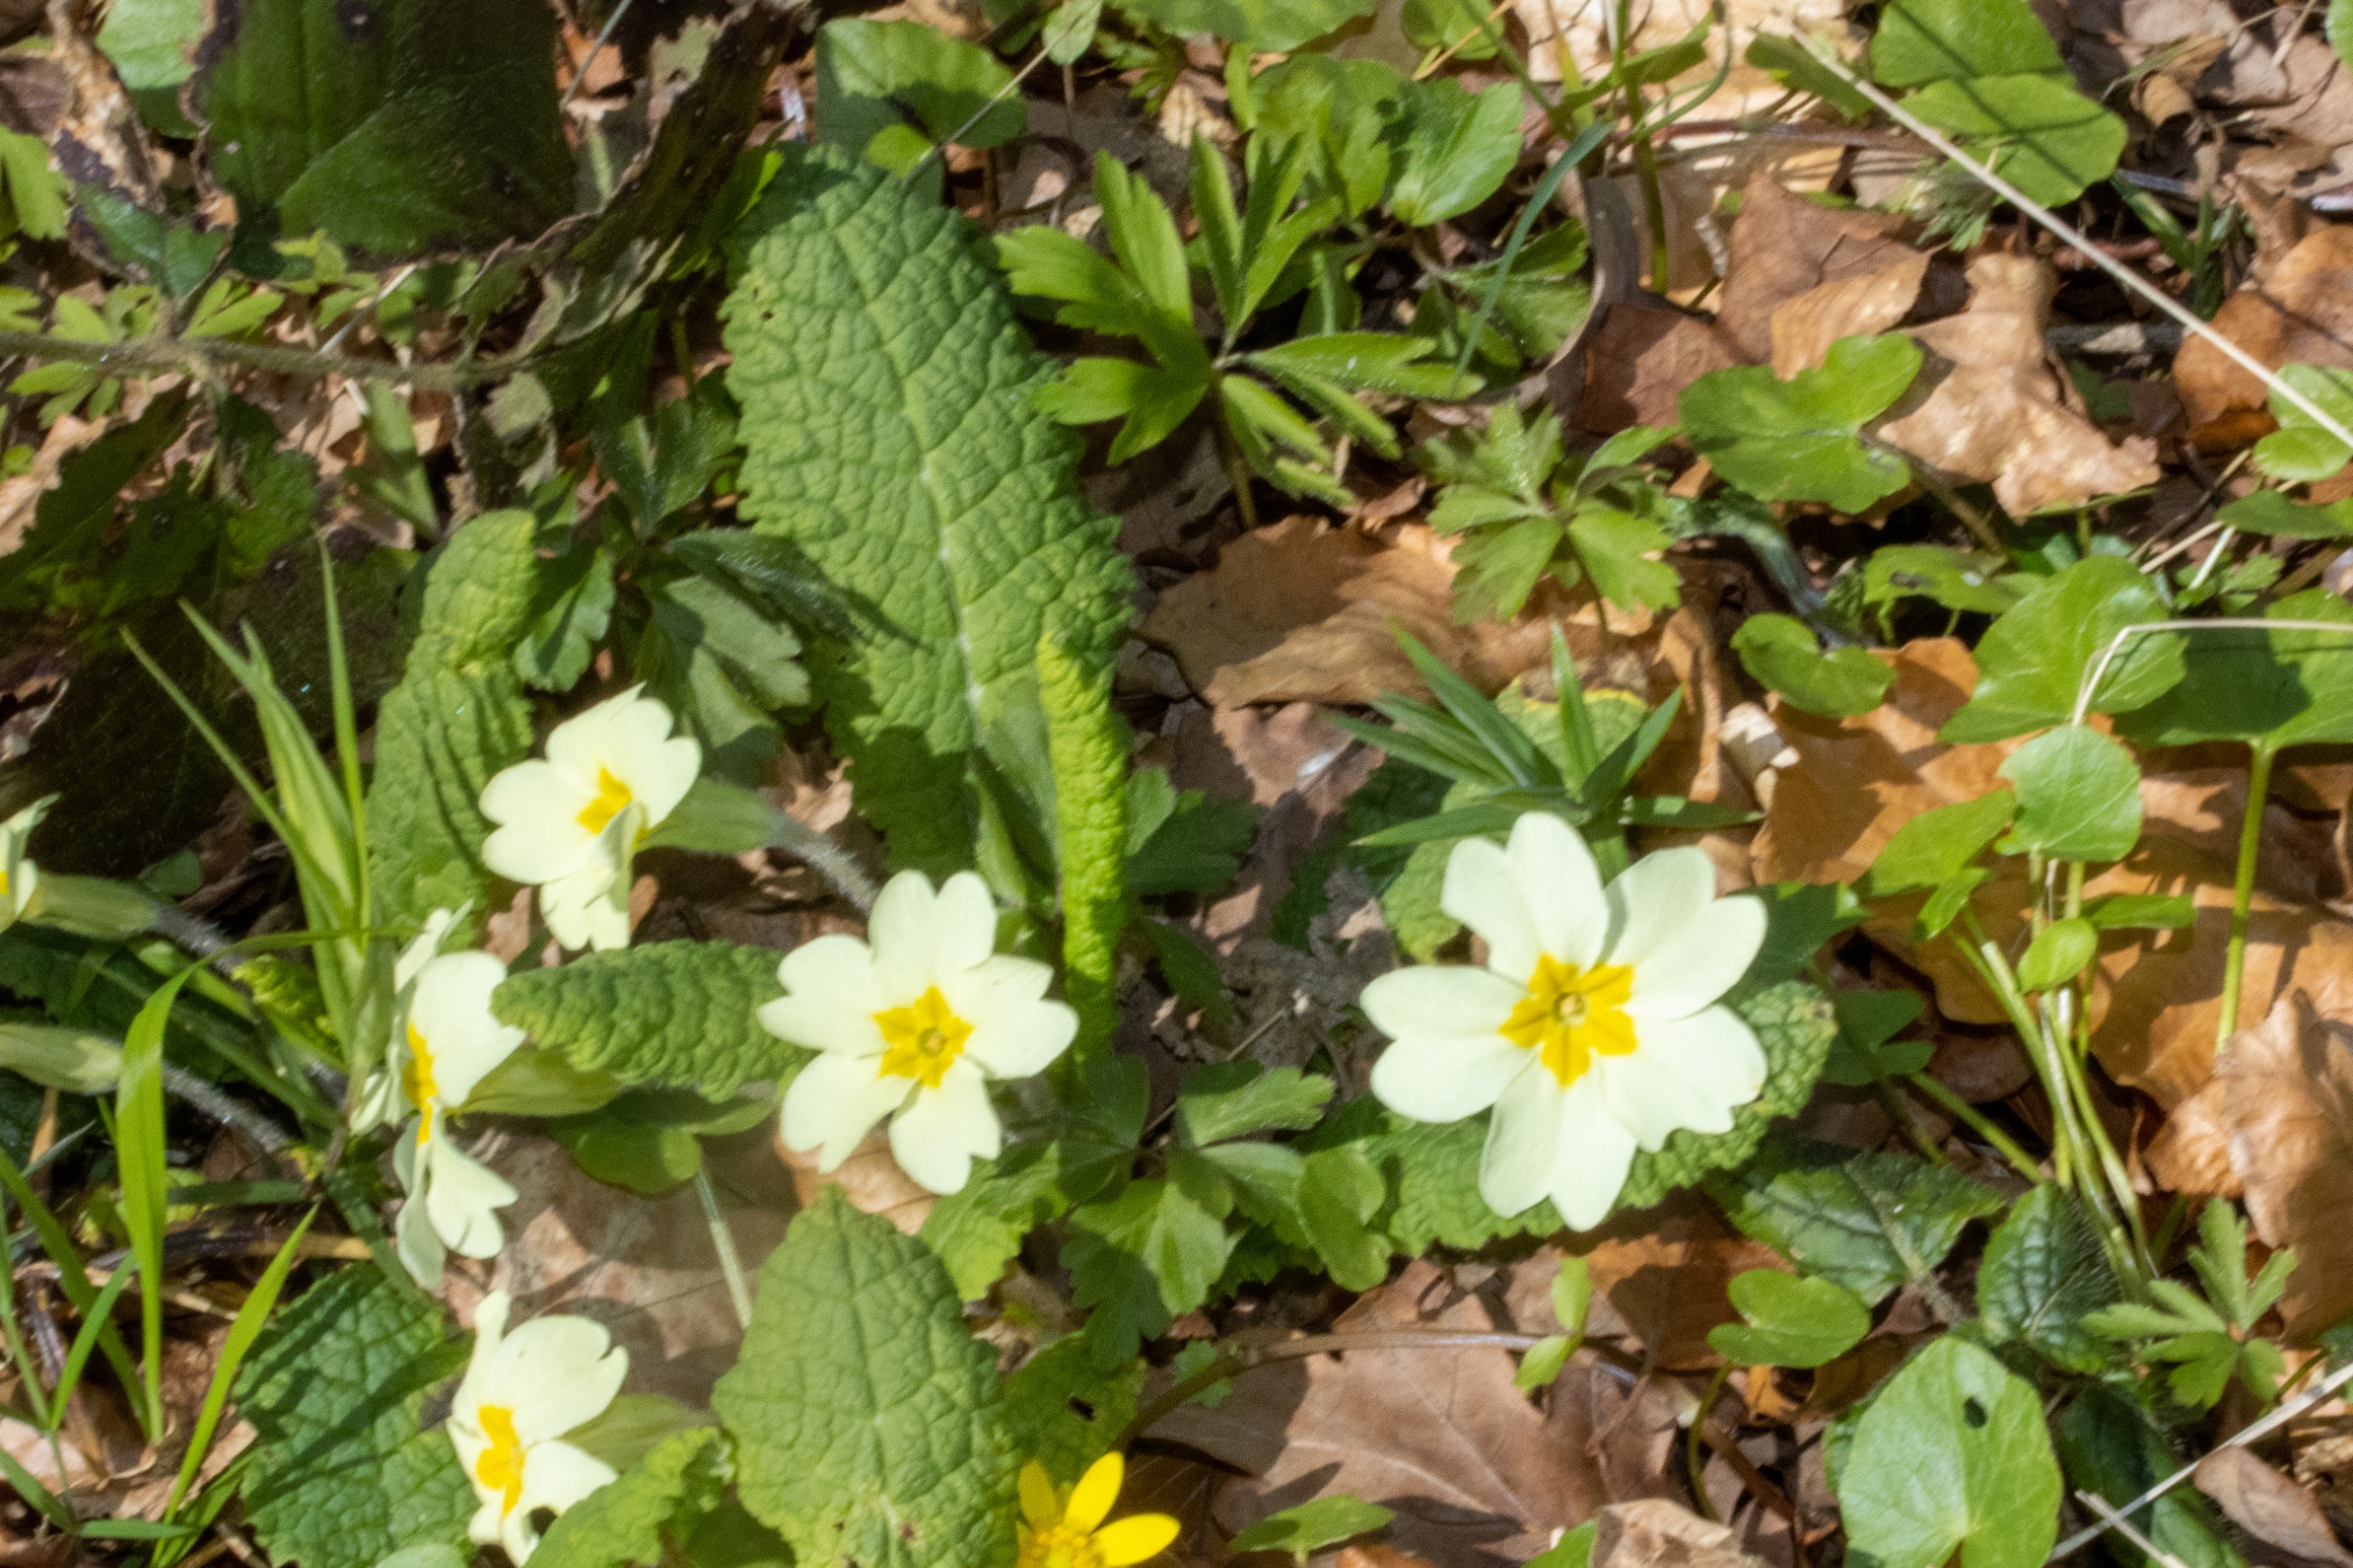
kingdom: Plantae
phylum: Tracheophyta
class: Magnoliopsida
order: Ericales
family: Primulaceae
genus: Primula
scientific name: Primula vulgaris
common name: Storblomstret kodriver
